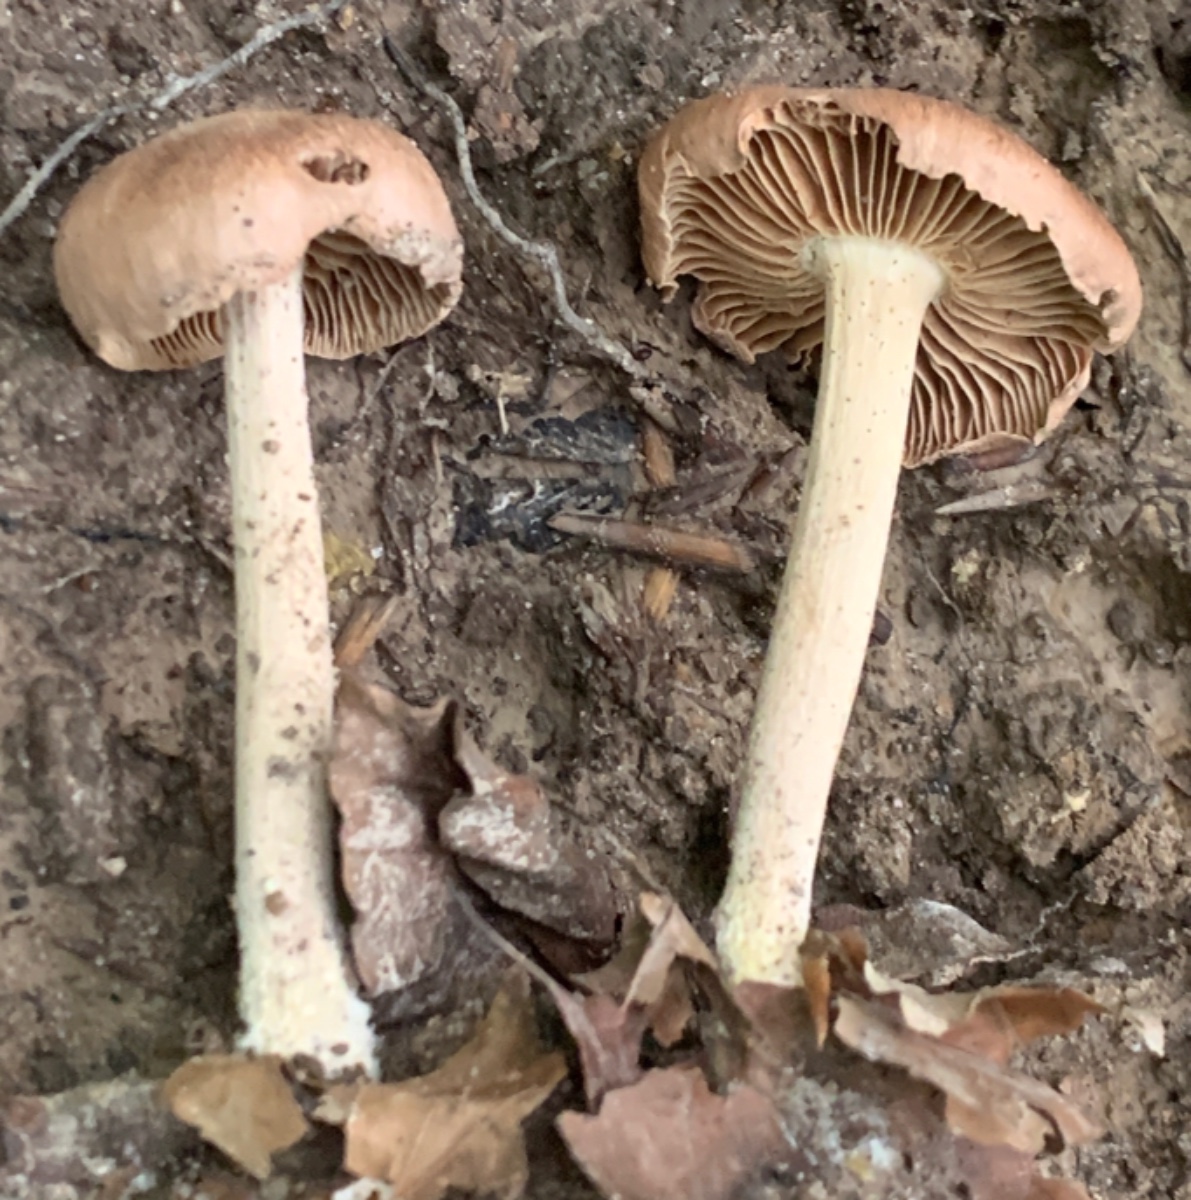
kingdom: Fungi
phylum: Basidiomycota
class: Agaricomycetes
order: Agaricales
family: Omphalotaceae
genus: Collybiopsis
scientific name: Collybiopsis peronata
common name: bestøvlet fladhat
